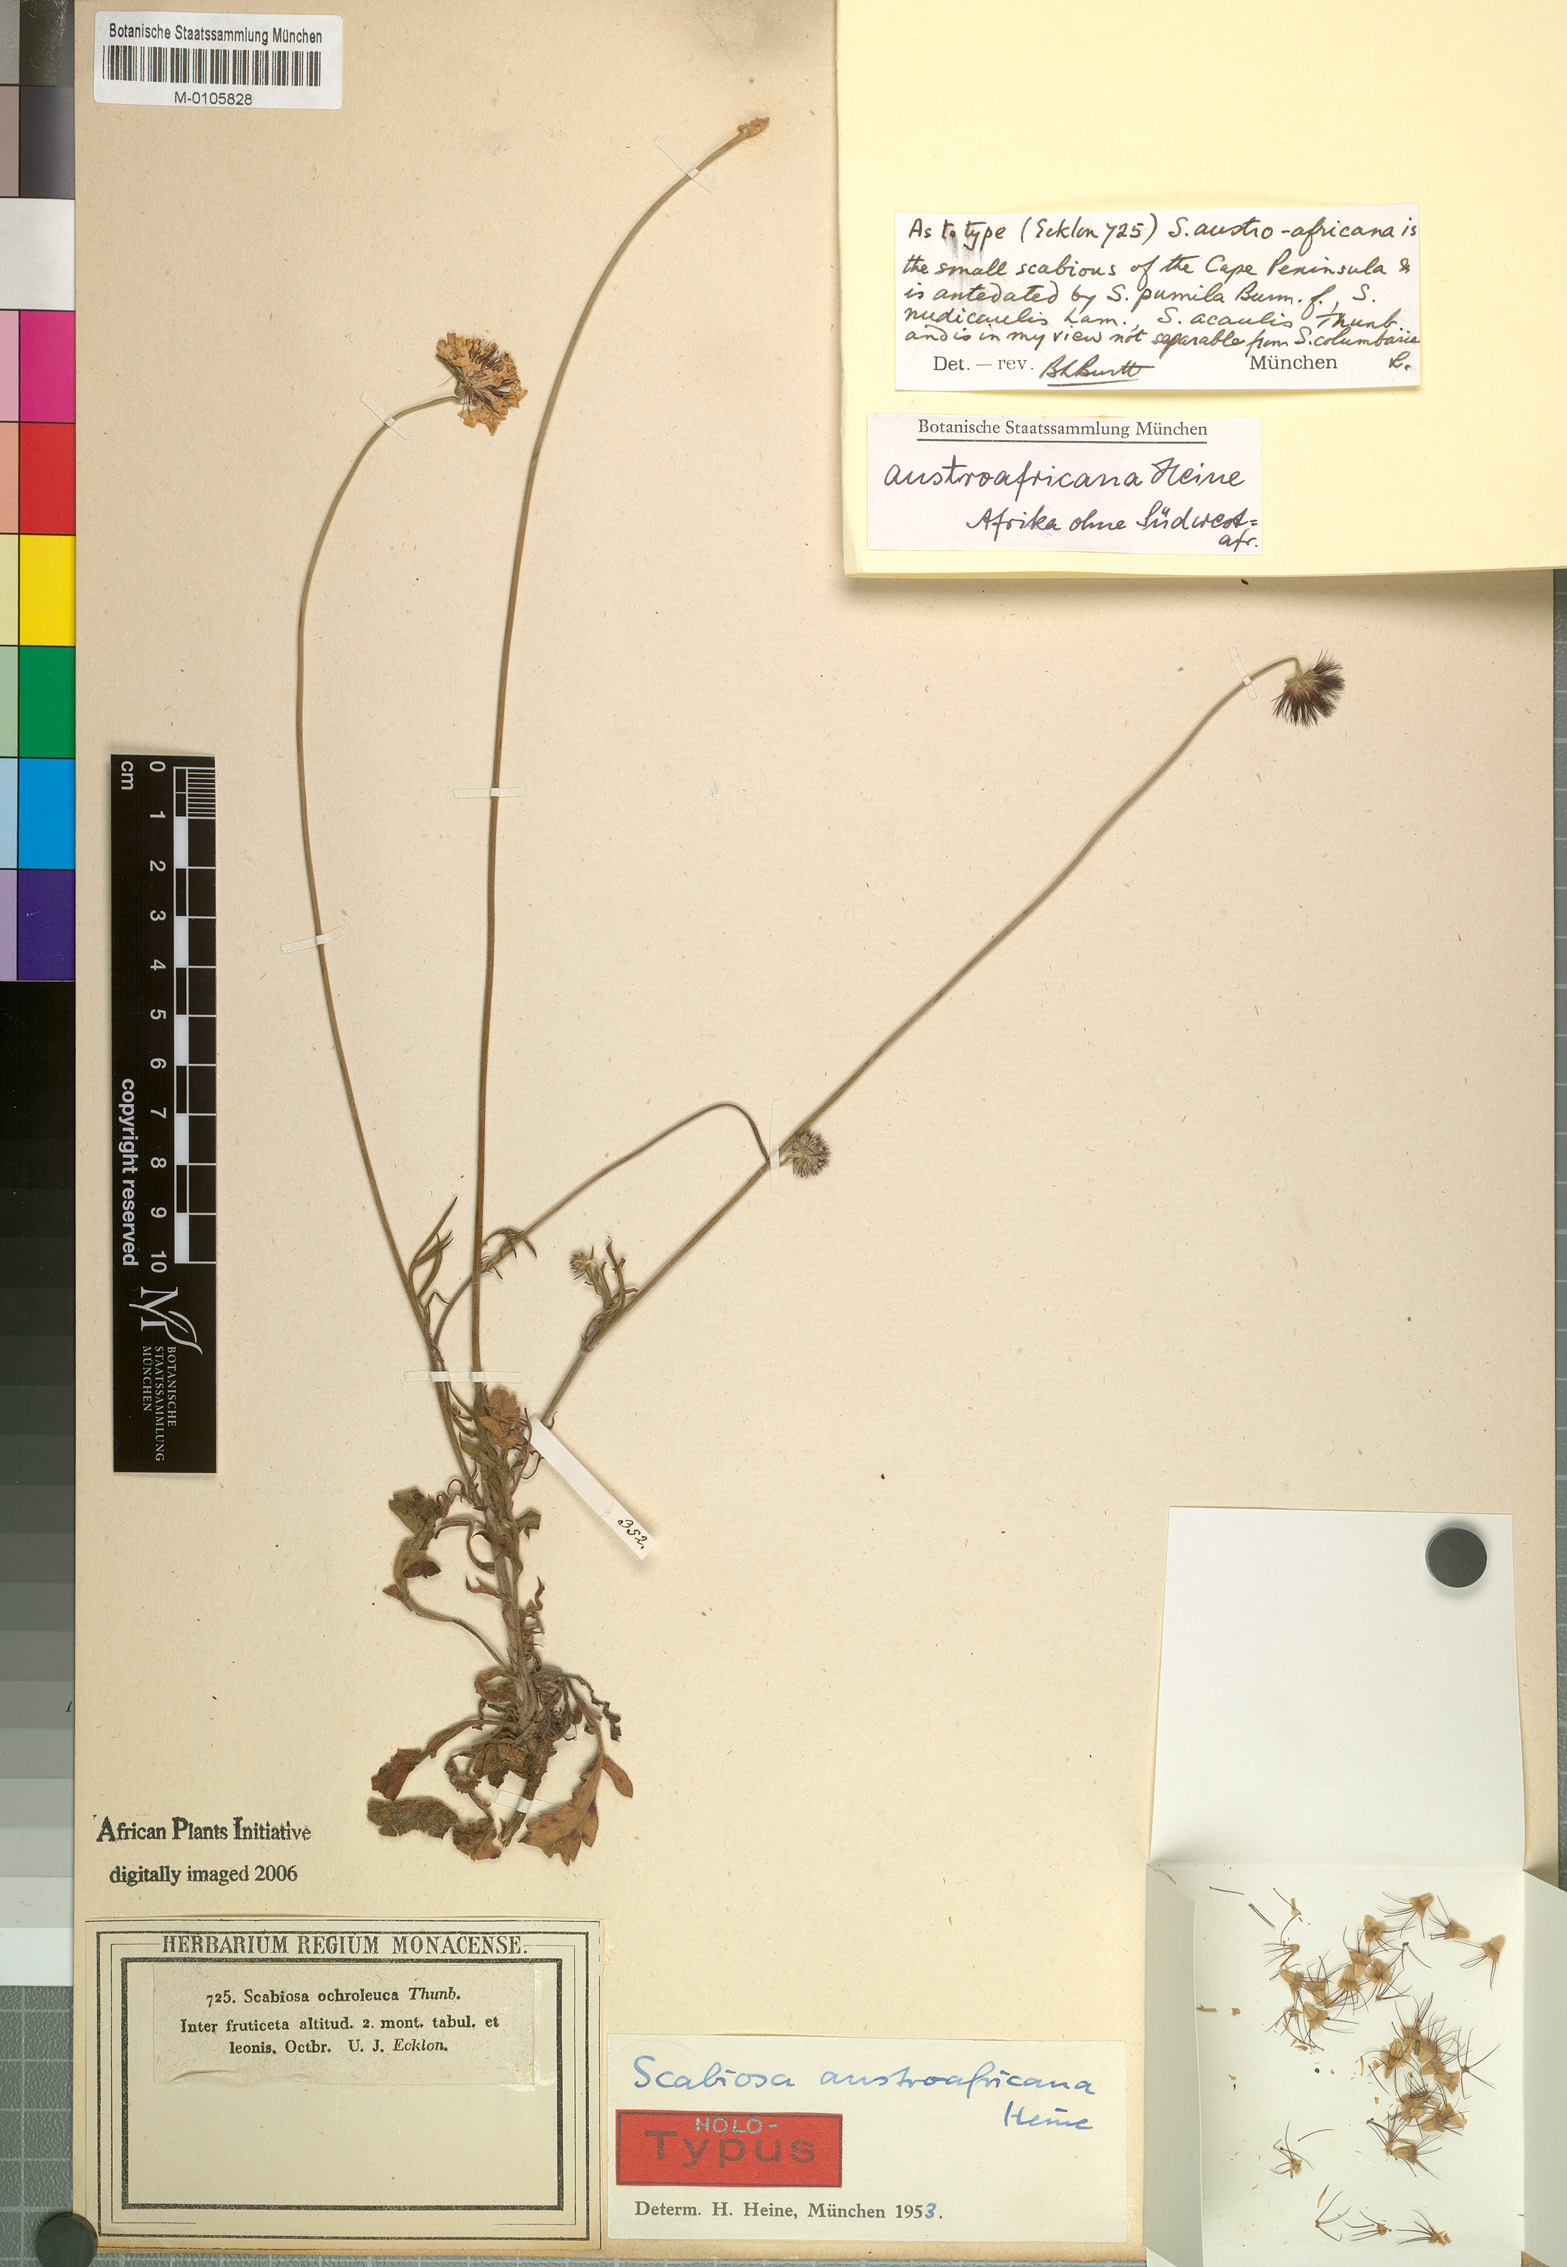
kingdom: Plantae
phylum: Tracheophyta
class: Magnoliopsida
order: Dipsacales
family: Caprifoliaceae
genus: Scabiosa
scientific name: Scabiosa austroafricana
